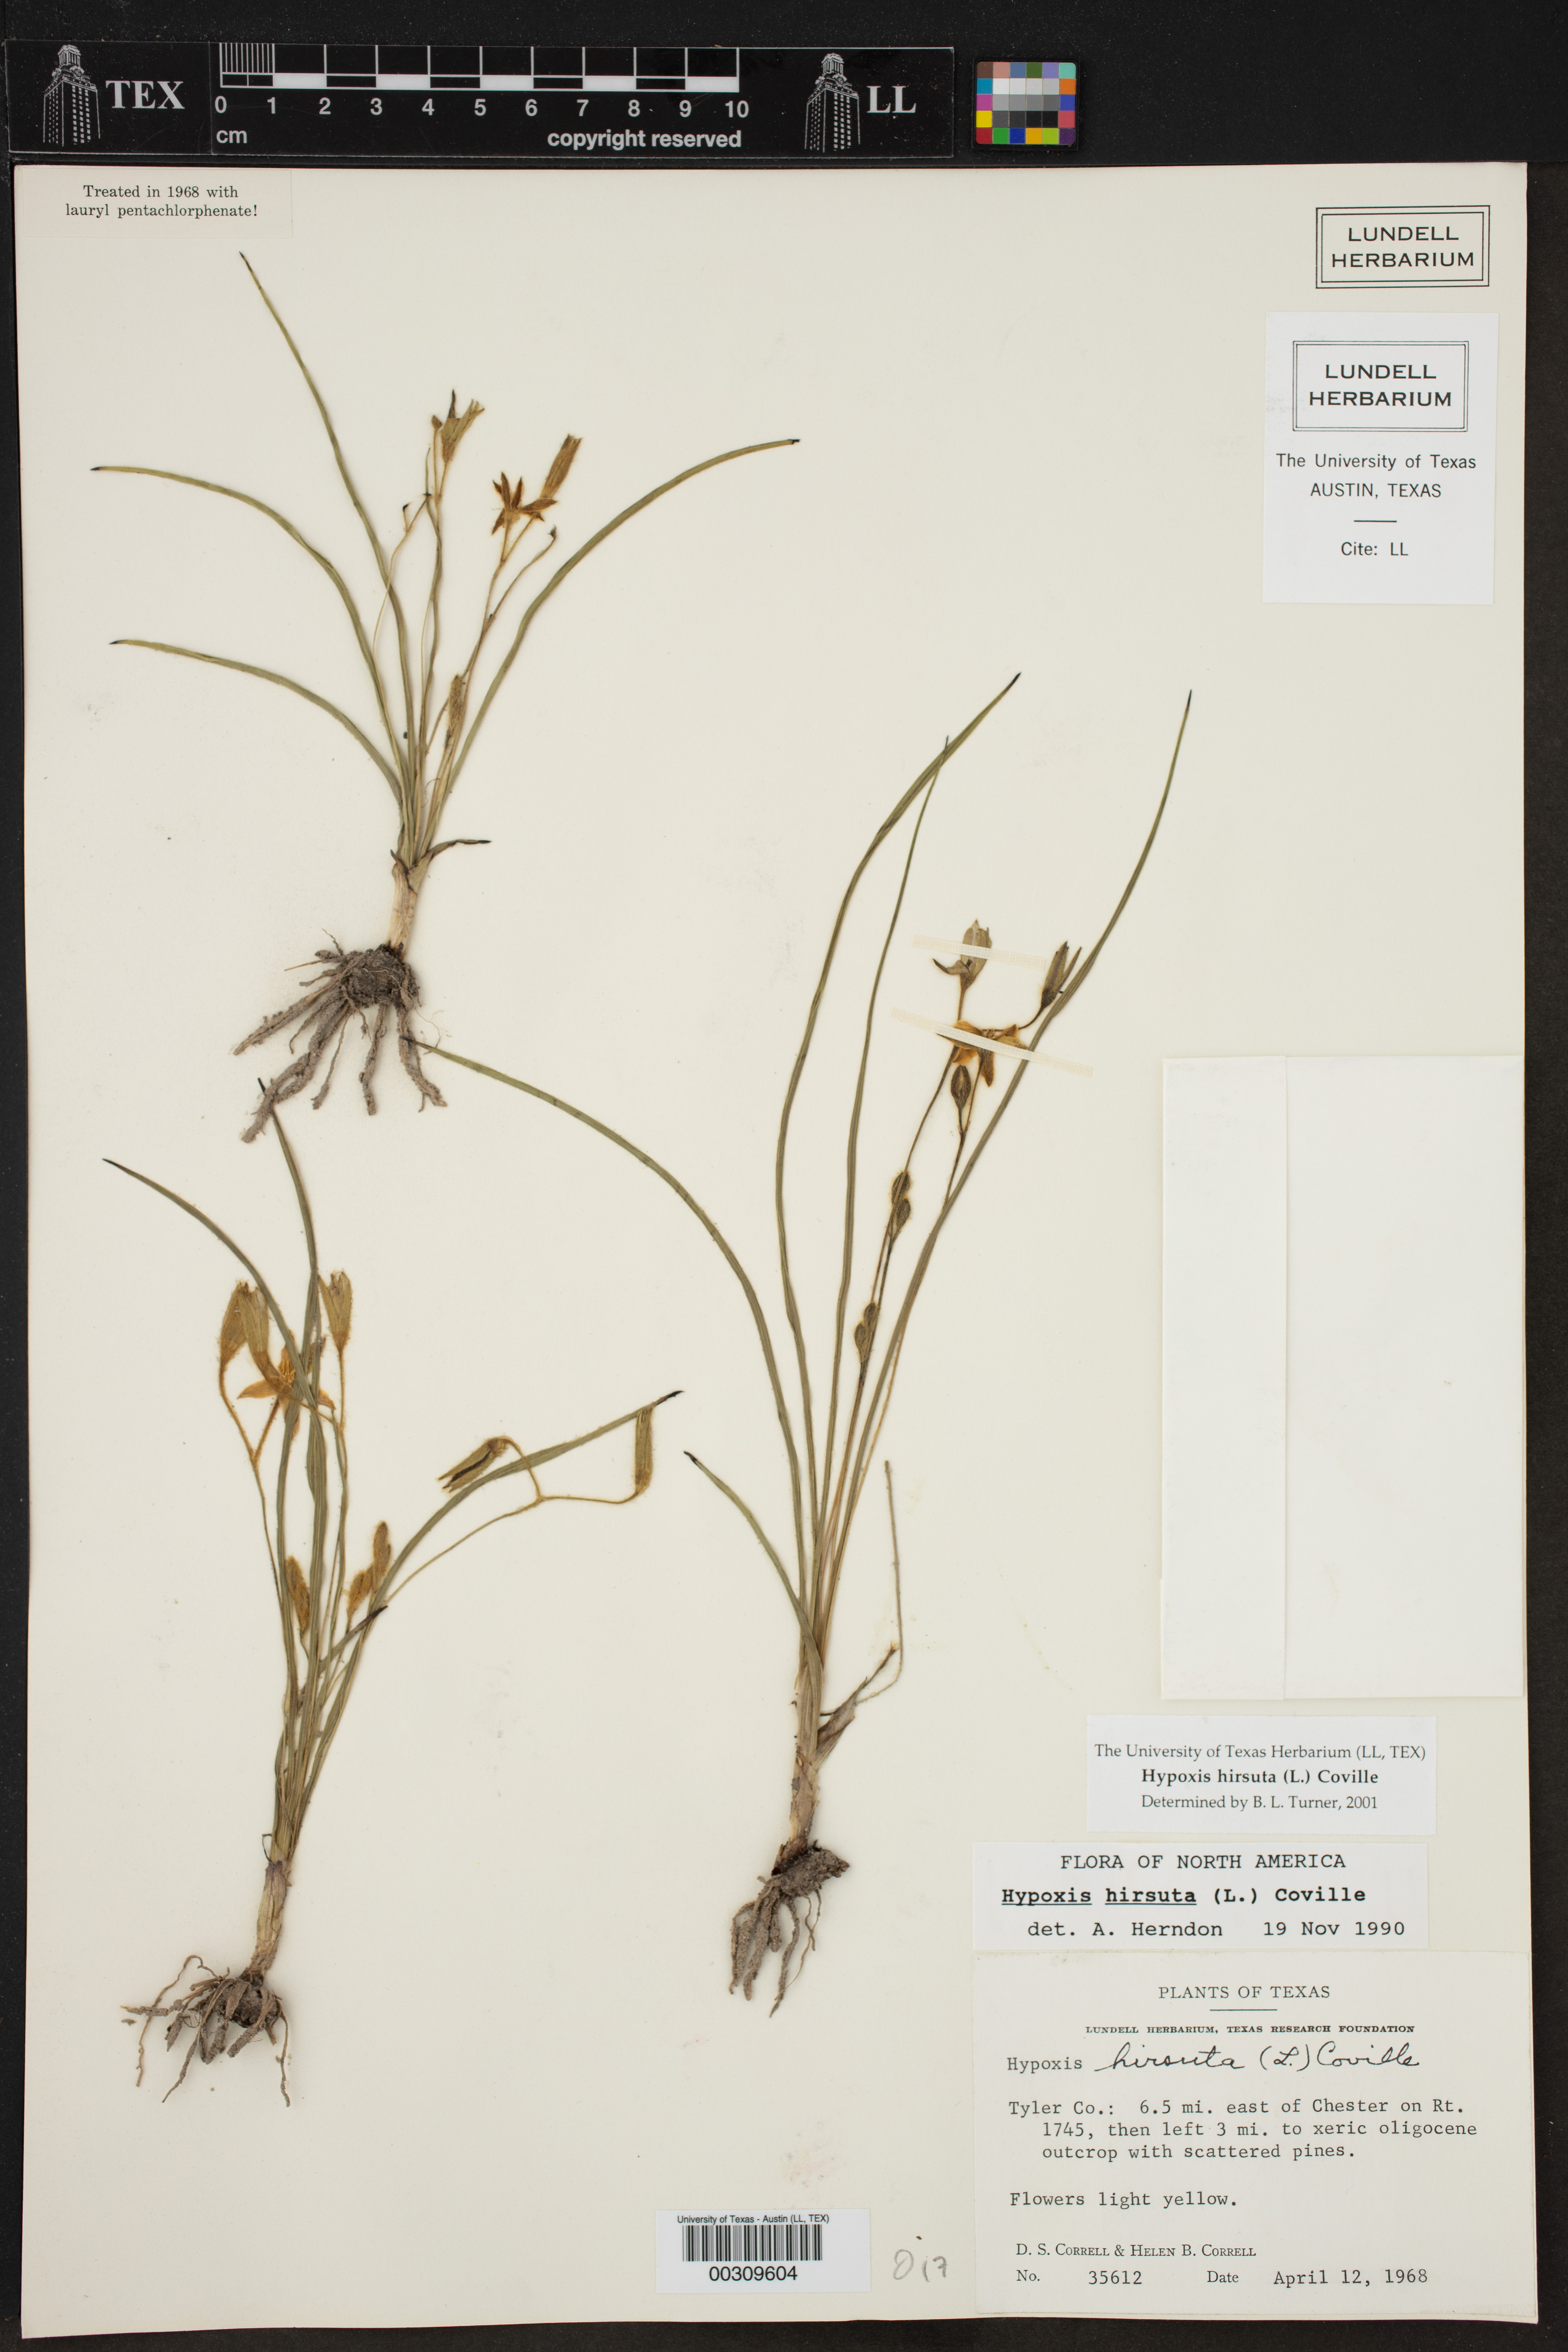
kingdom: Plantae
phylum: Tracheophyta
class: Liliopsida
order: Asparagales
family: Hypoxidaceae
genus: Hypoxis
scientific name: Hypoxis hirsuta
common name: Common goldstar
